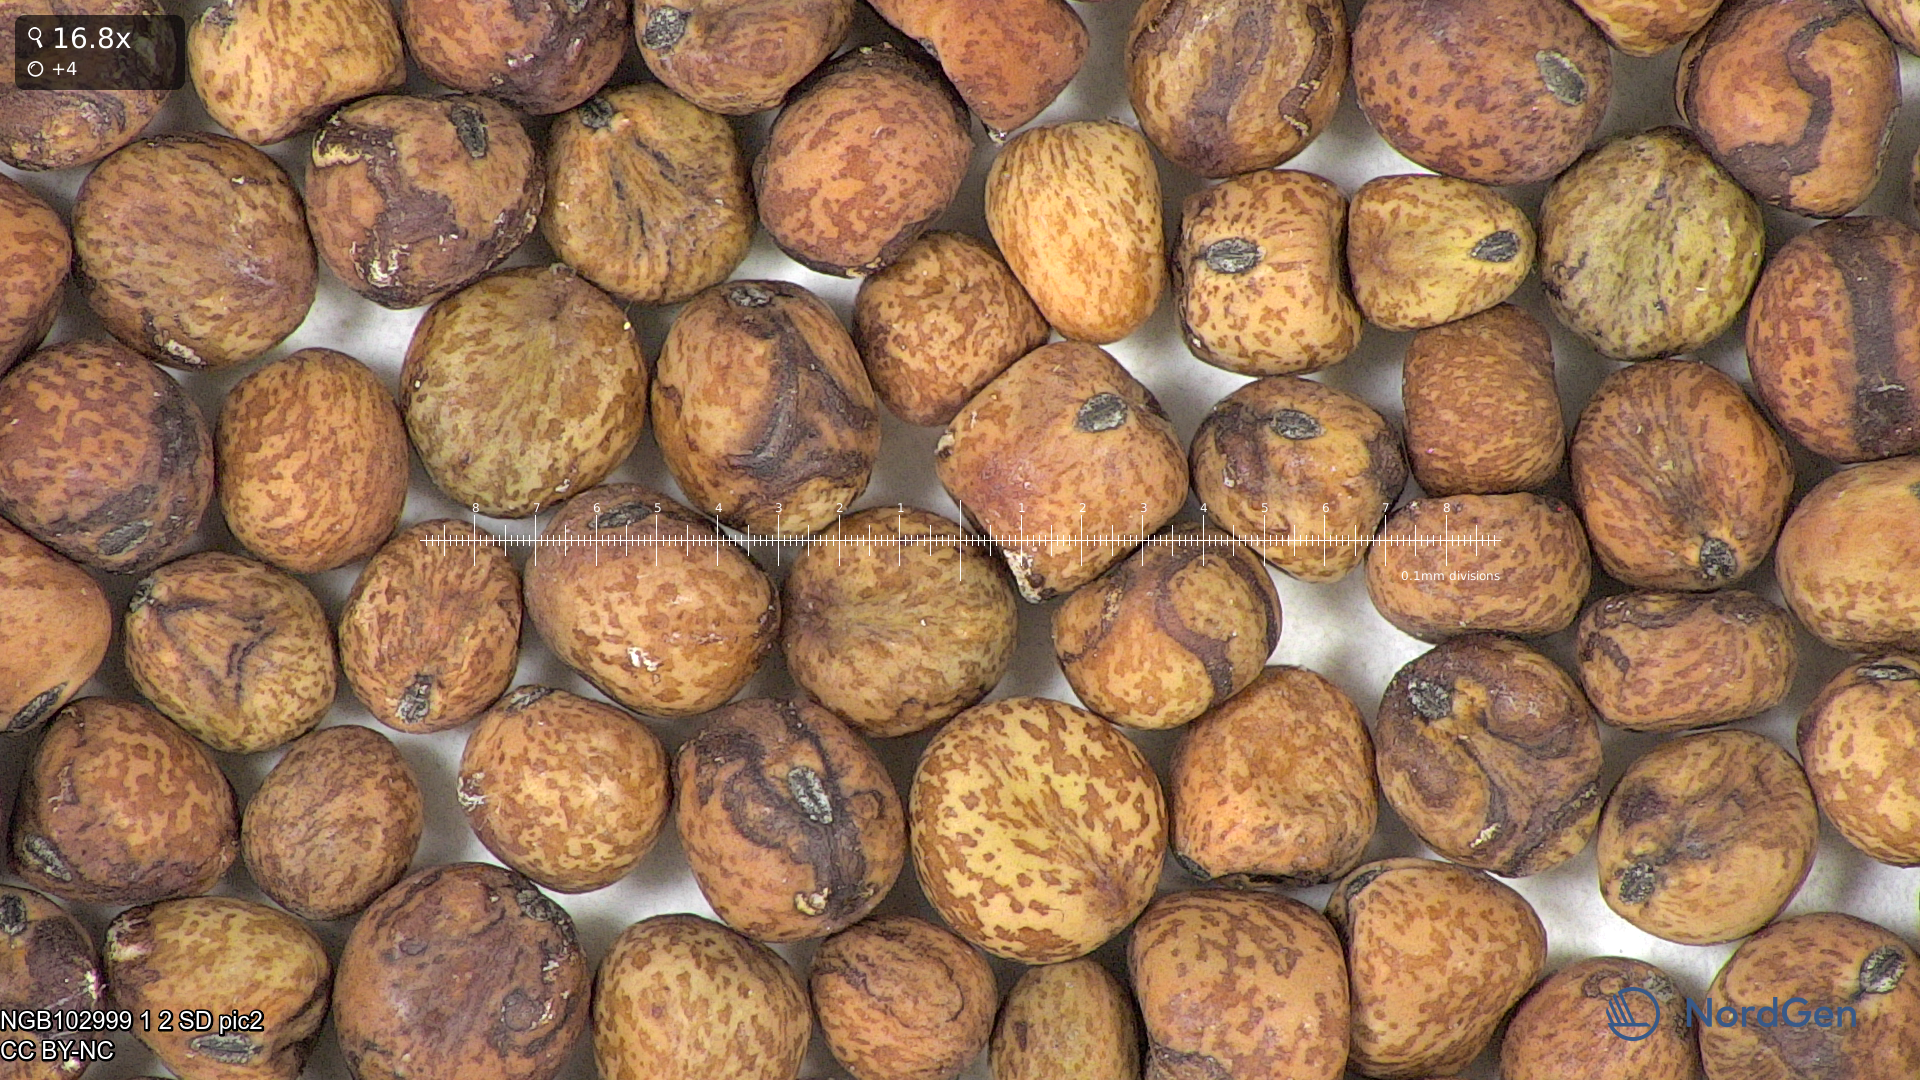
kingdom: Plantae
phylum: Tracheophyta
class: Magnoliopsida
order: Fabales
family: Fabaceae
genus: Lathyrus
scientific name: Lathyrus oleraceus
